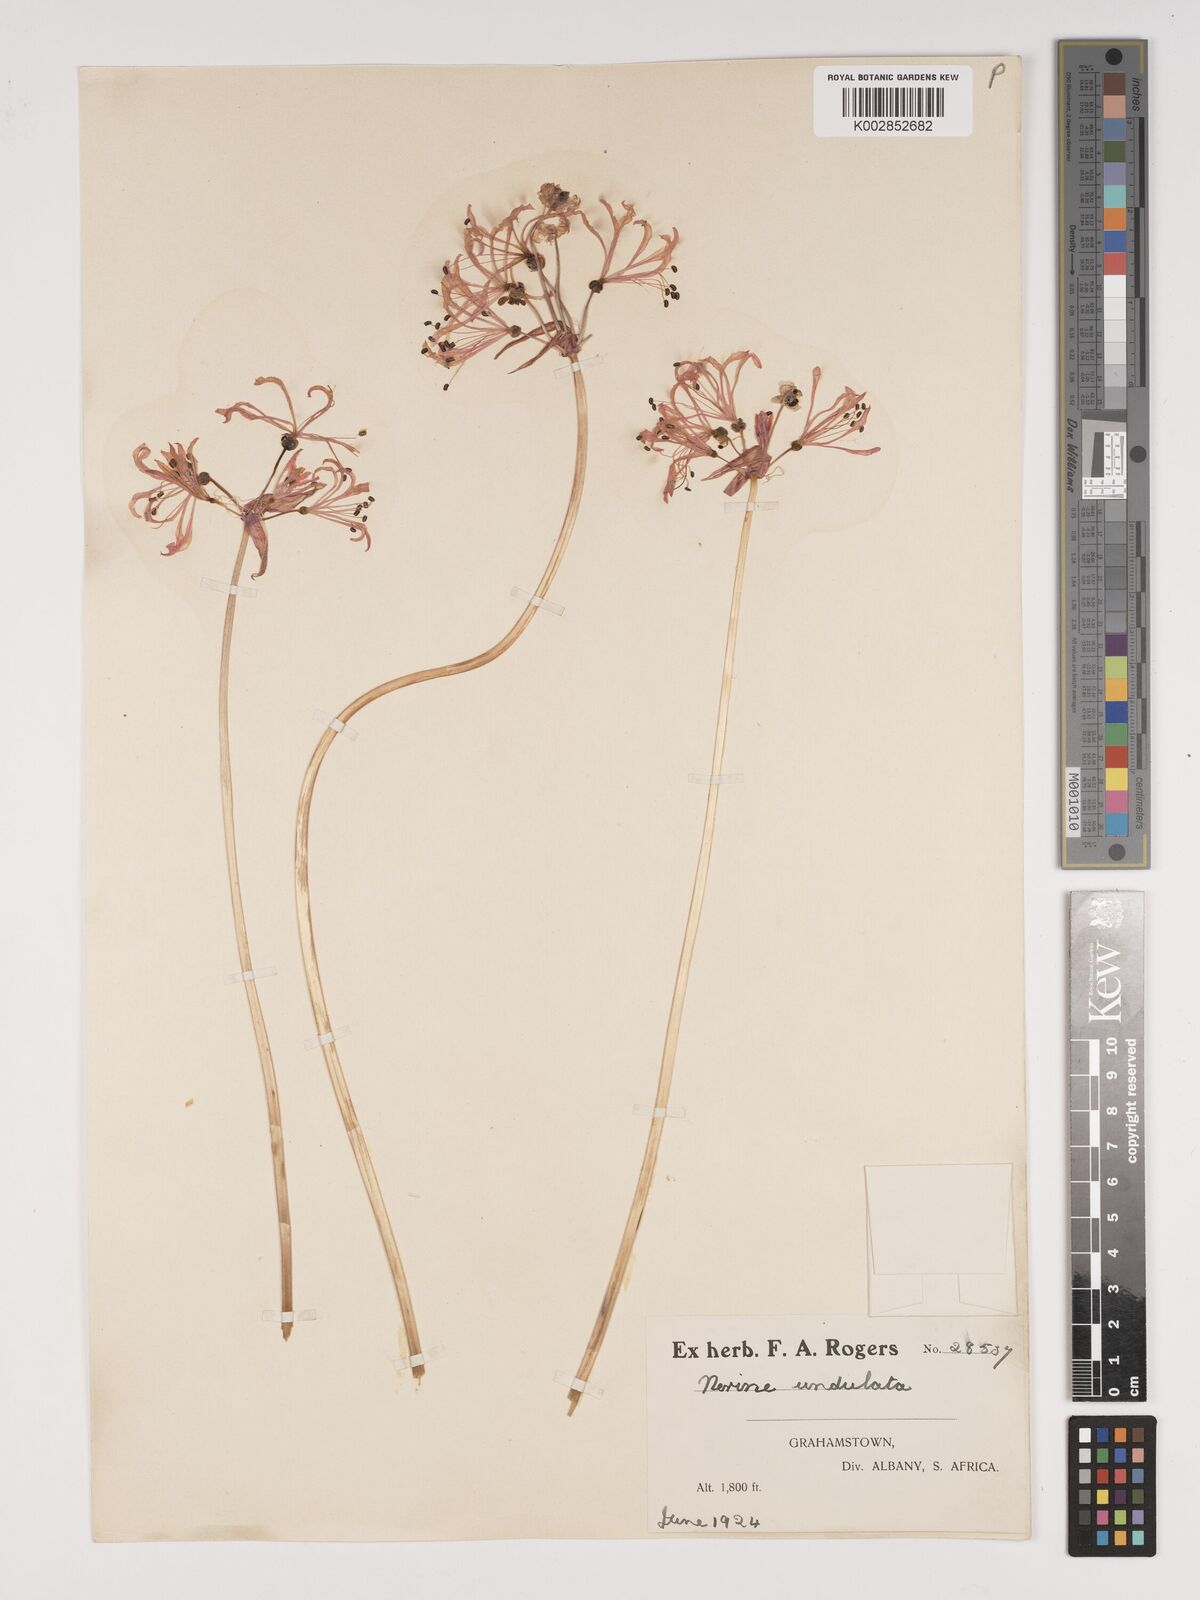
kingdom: Plantae
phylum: Tracheophyta
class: Liliopsida
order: Asparagales
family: Amaryllidaceae
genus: Nerine
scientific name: Nerine undulata
